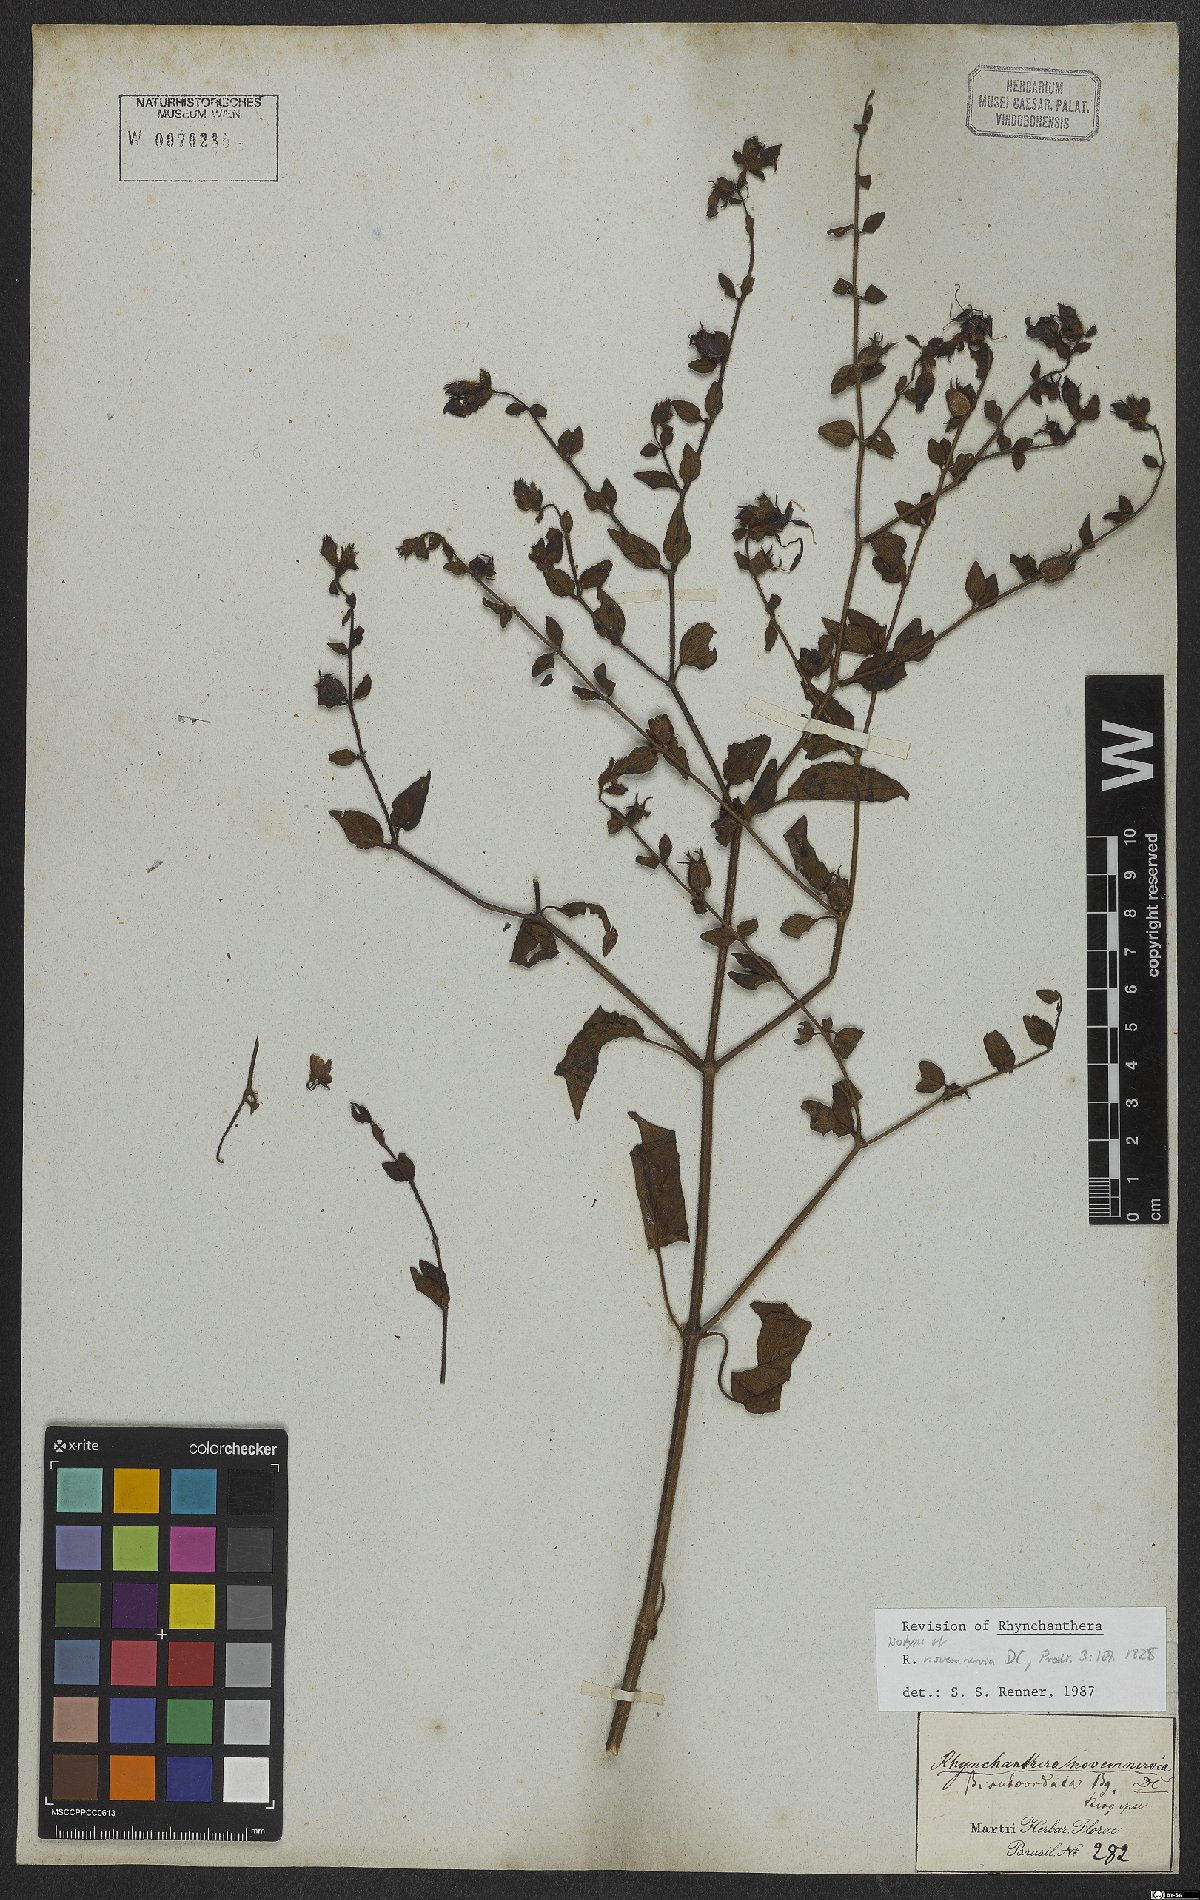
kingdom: Plantae
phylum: Tracheophyta
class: Magnoliopsida
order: Myrtales
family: Melastomataceae
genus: Rhynchanthera
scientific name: Rhynchanthera novemnervia
